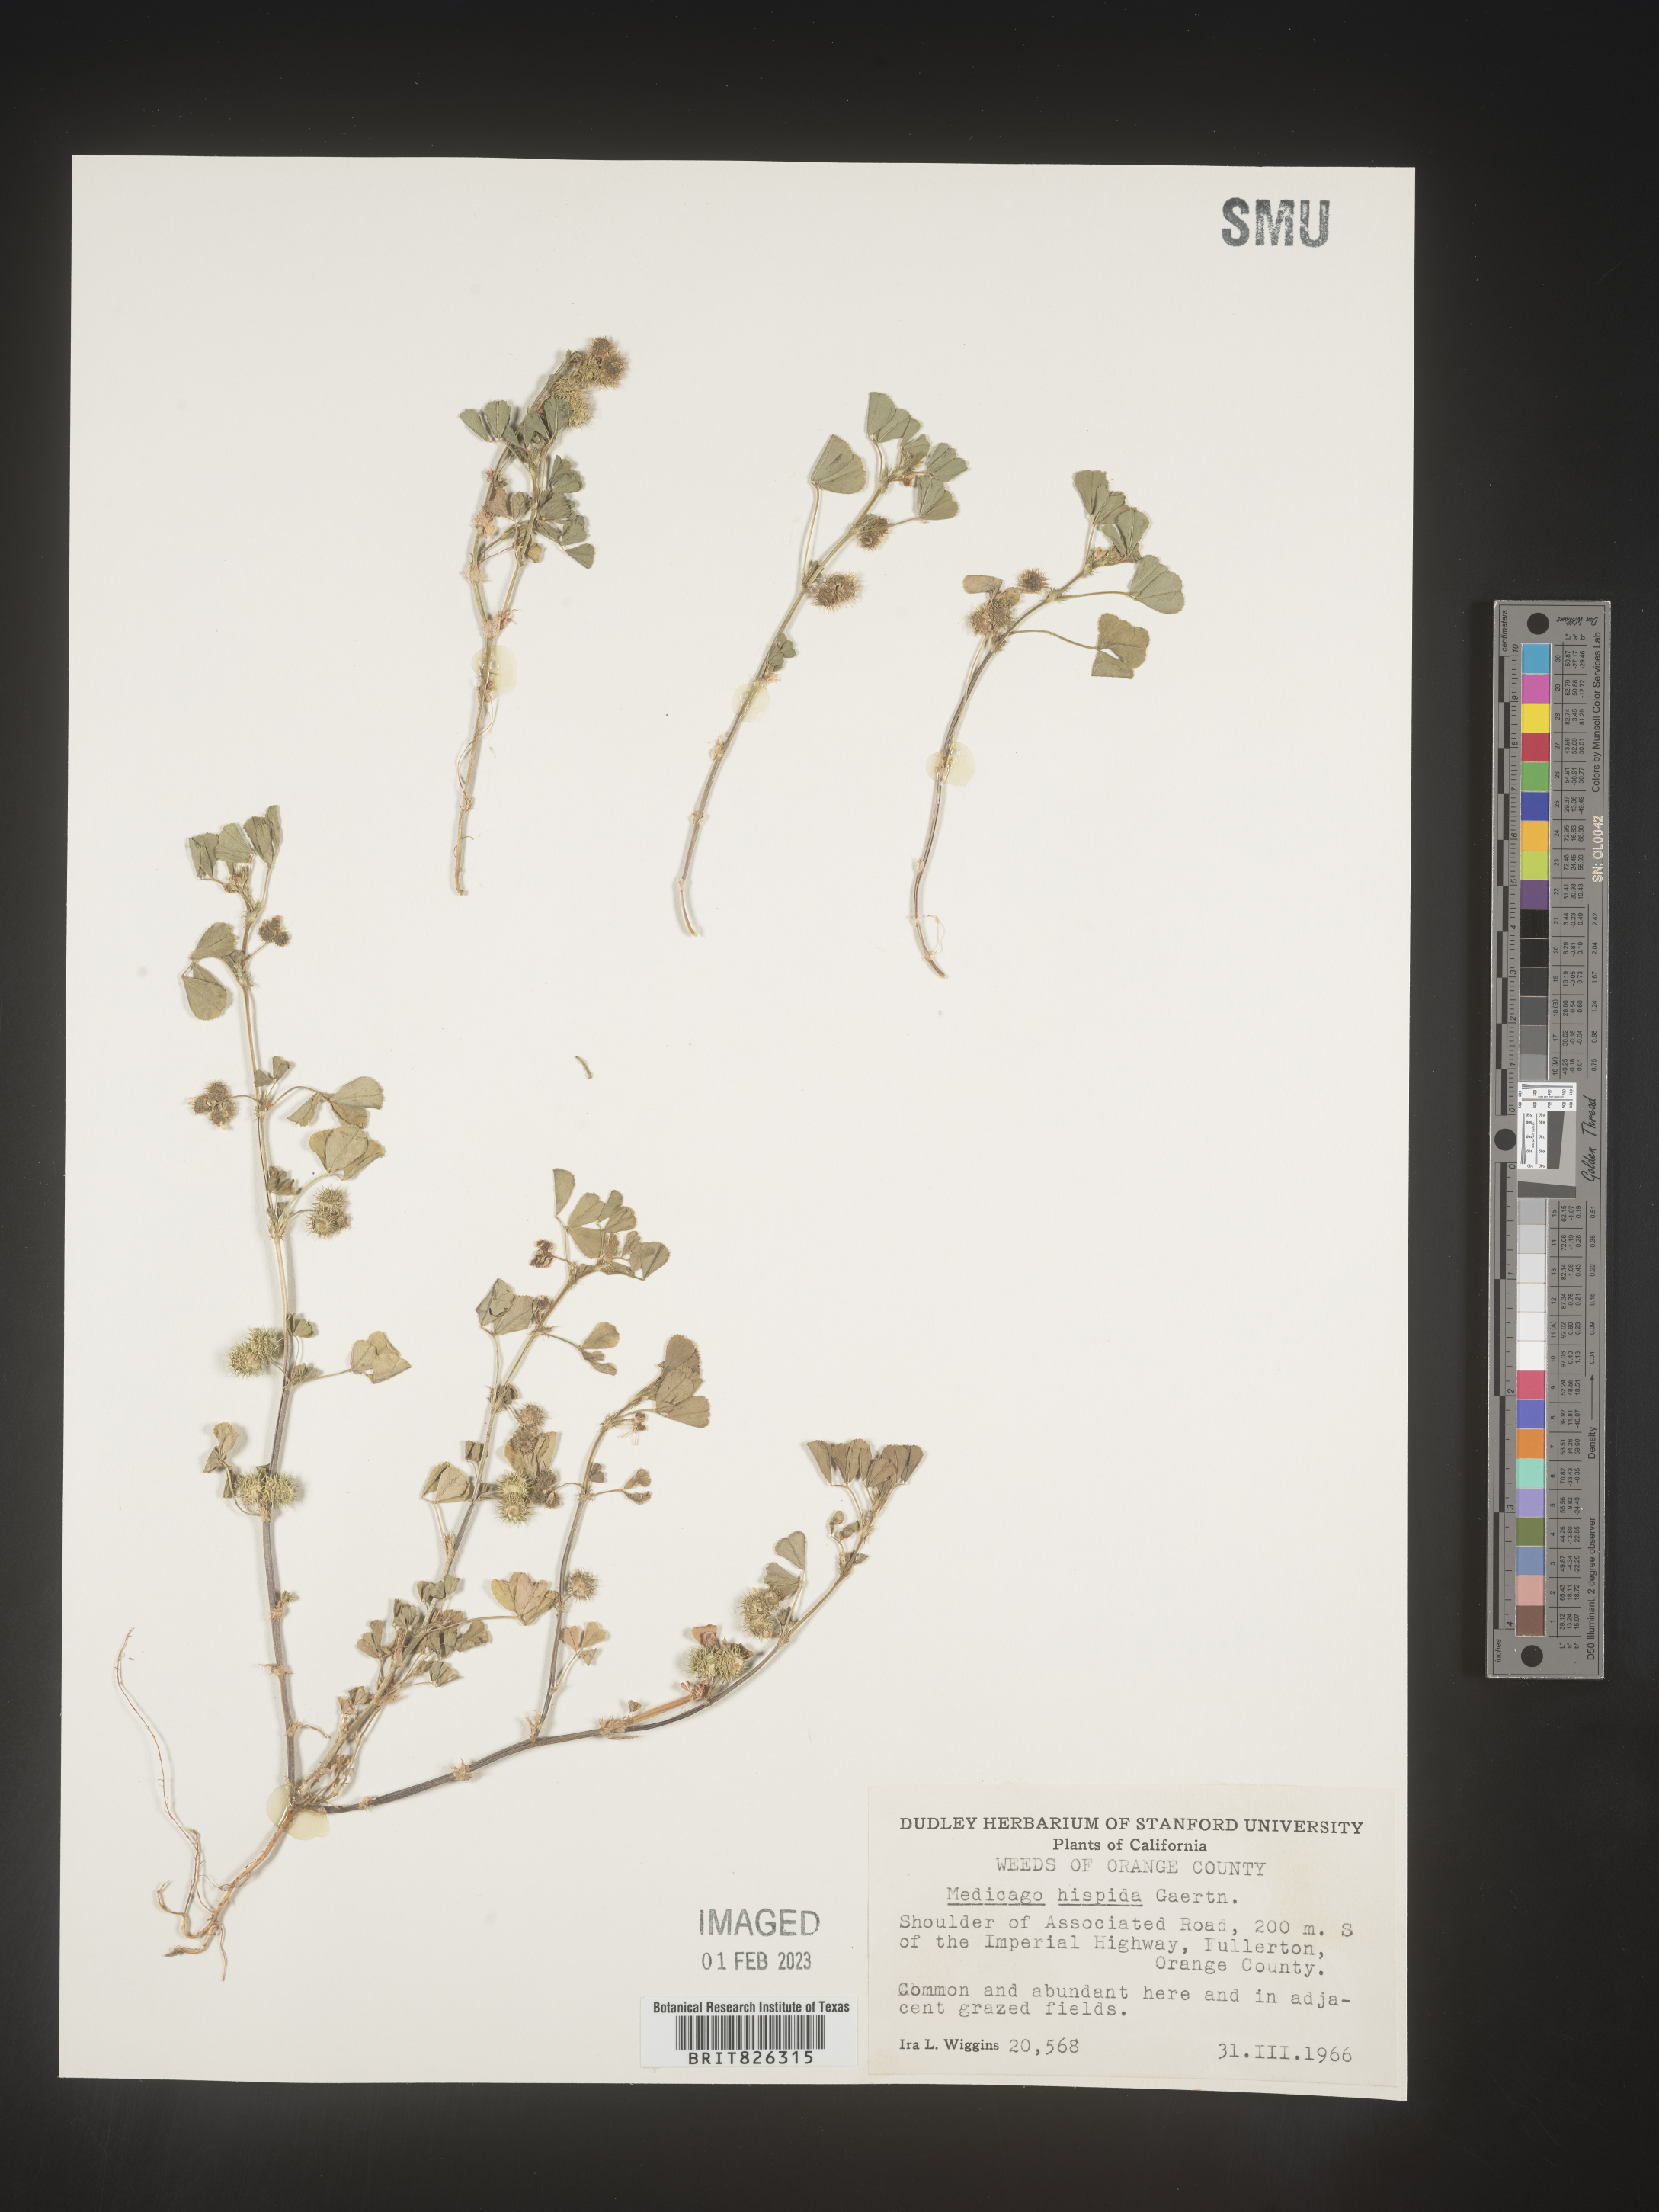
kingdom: Plantae
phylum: Tracheophyta
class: Magnoliopsida
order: Fabales
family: Fabaceae
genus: Medicago
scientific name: Medicago polymorpha
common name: Burclover
